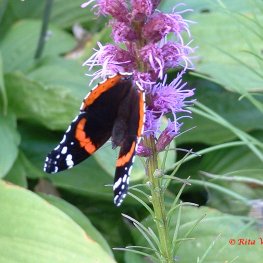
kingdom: Animalia
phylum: Arthropoda
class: Insecta
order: Lepidoptera
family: Nymphalidae
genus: Vanessa
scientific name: Vanessa atalanta
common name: Red Admiral
